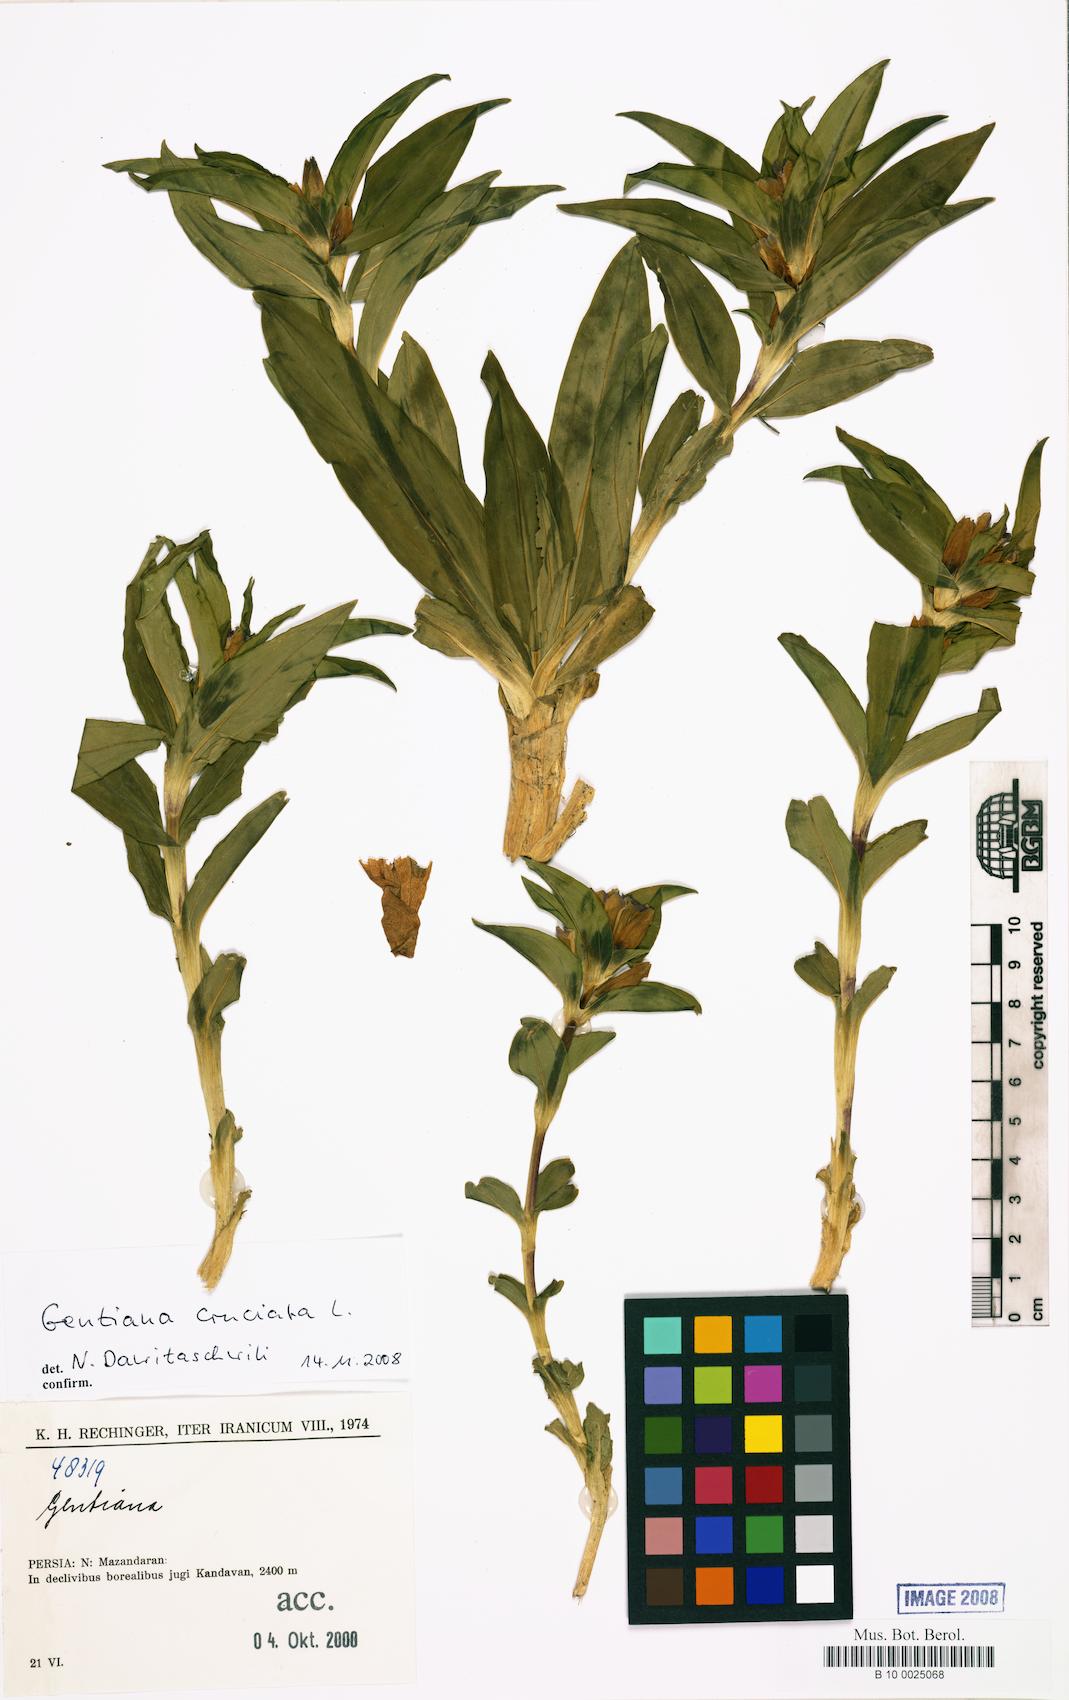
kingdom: Plantae
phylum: Tracheophyta
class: Magnoliopsida
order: Gentianales
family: Gentianaceae
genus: Gentiana
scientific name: Gentiana cruciata
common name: Cross gentian
